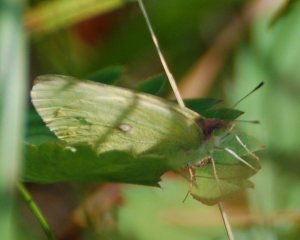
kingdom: Animalia
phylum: Arthropoda
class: Insecta
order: Lepidoptera
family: Pieridae
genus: Colias
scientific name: Colias interior
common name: Pink-edged Sulphur
